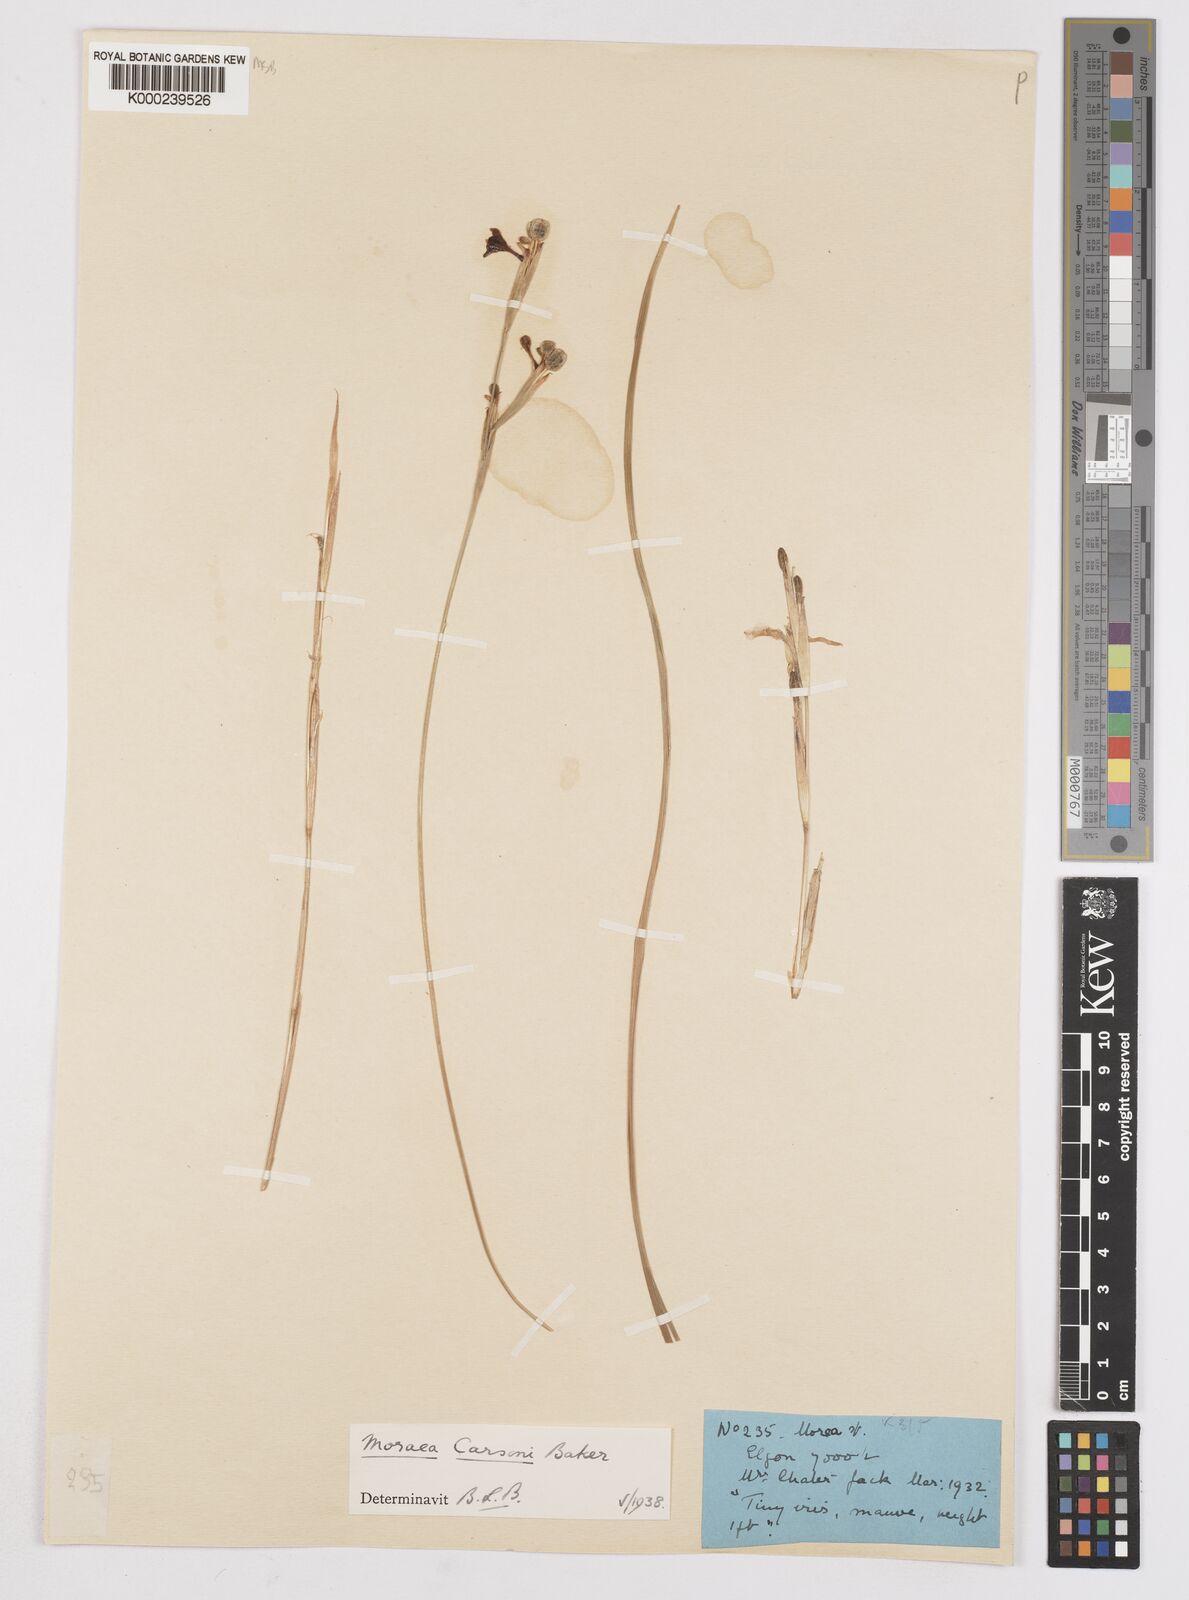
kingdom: Plantae
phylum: Tracheophyta
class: Liliopsida
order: Asparagales
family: Iridaceae
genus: Moraea
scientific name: Moraea
